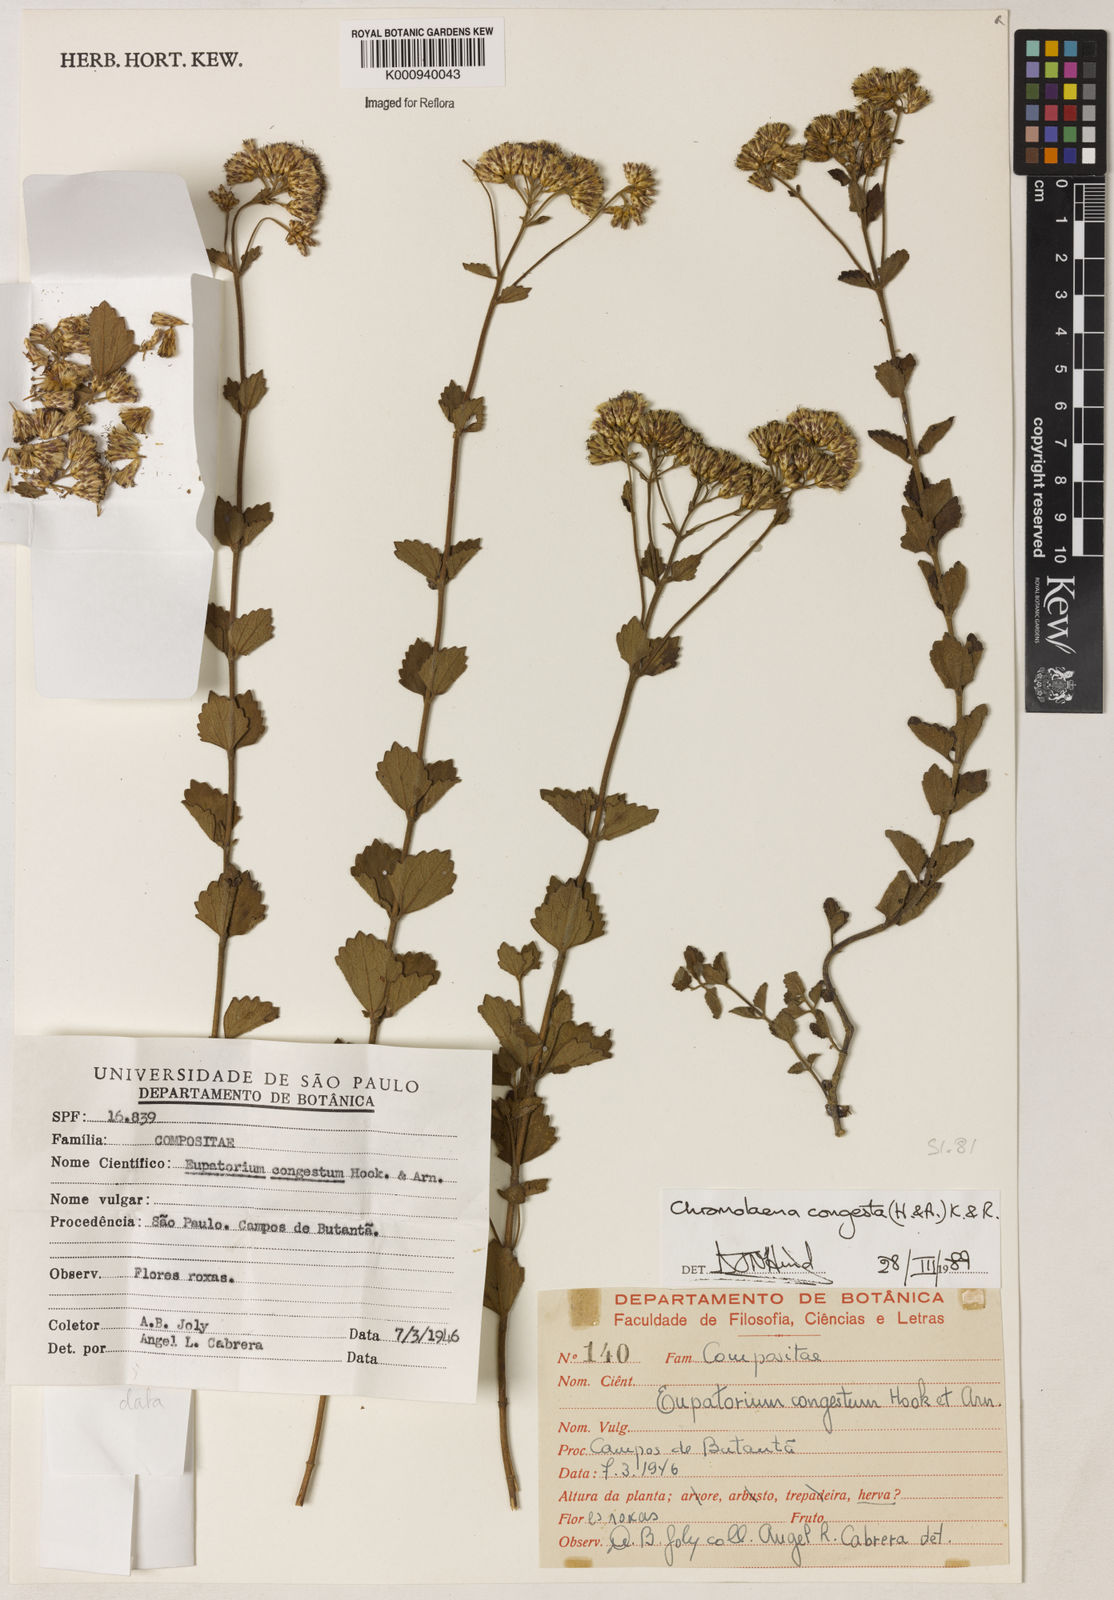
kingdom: Plantae
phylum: Tracheophyta
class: Magnoliopsida
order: Asterales
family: Asteraceae
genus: Chromolaena
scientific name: Chromolaena congesta
